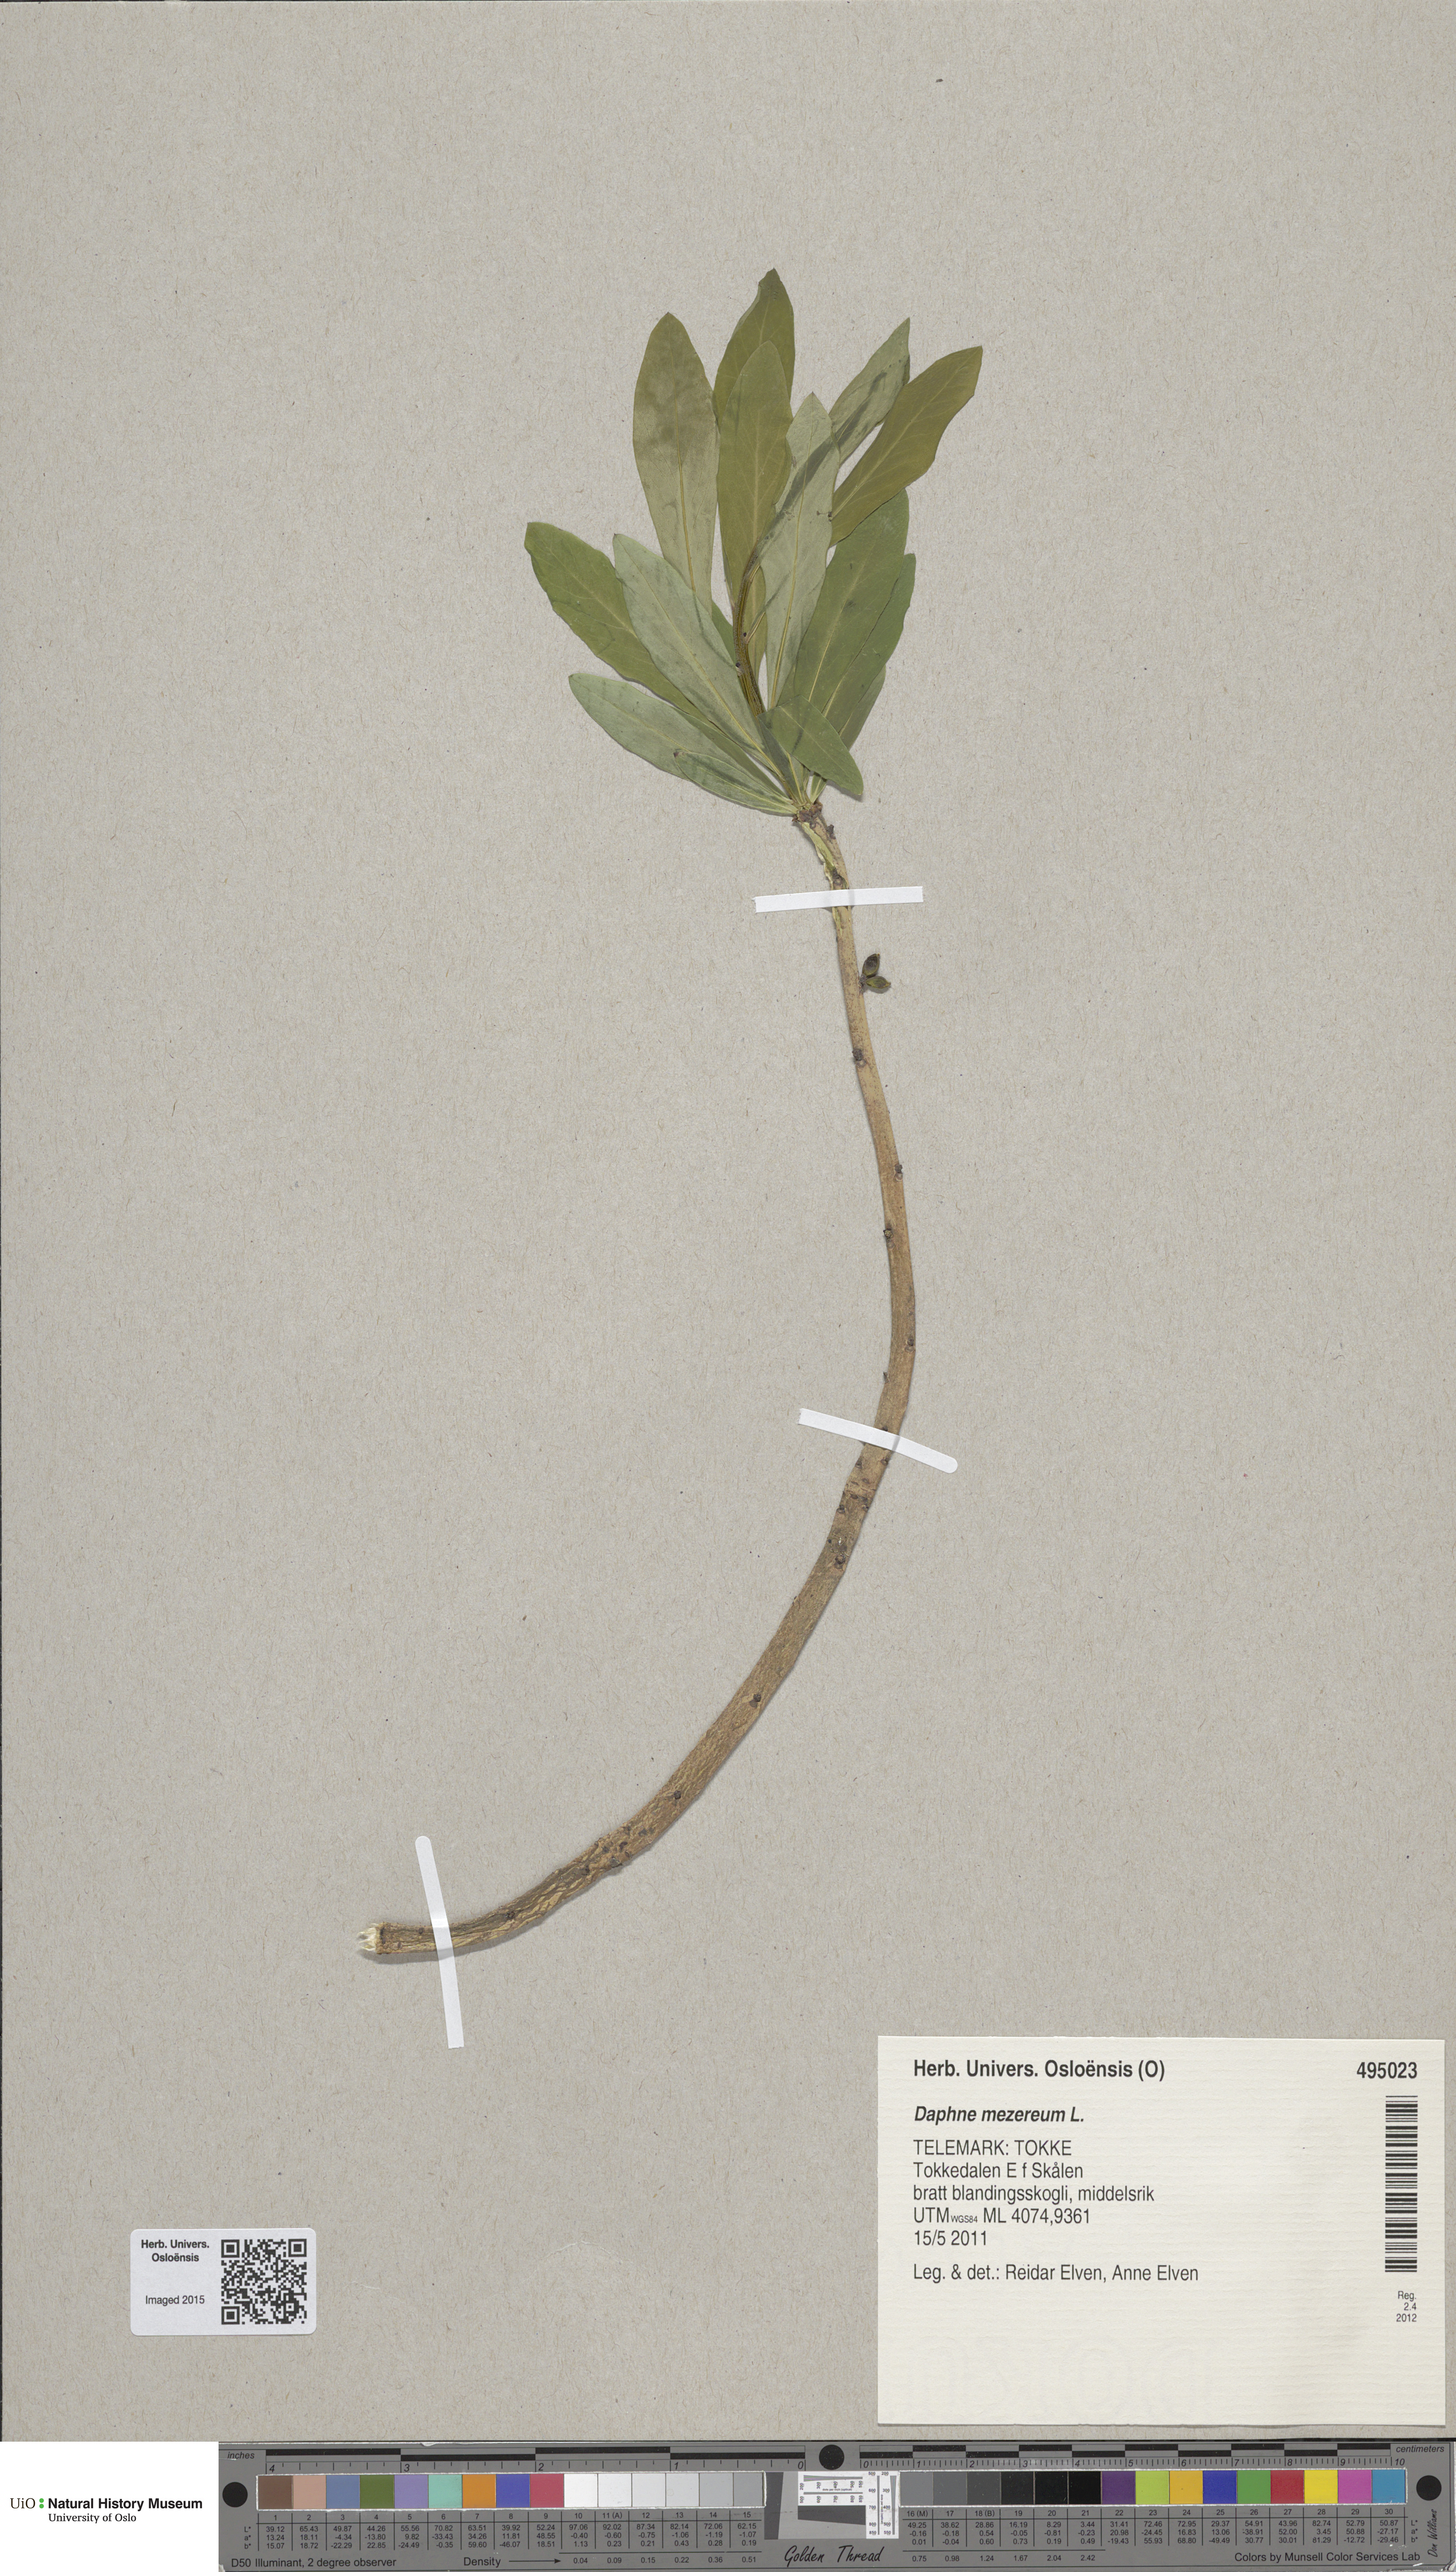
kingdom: Plantae
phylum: Tracheophyta
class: Magnoliopsida
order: Malvales
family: Thymelaeaceae
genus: Daphne
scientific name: Daphne mezereum
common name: Mezereon
